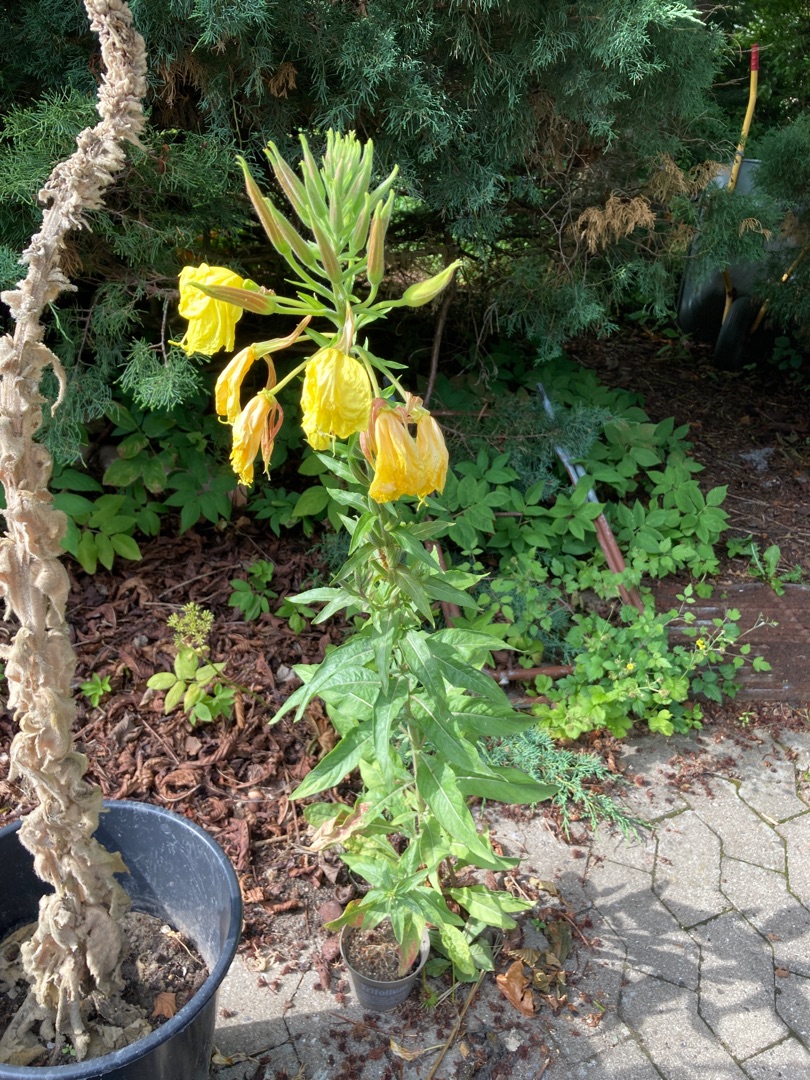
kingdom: Plantae
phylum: Tracheophyta
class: Magnoliopsida
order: Myrtales
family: Onagraceae
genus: Oenothera
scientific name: Oenothera glazioviana
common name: Kæmpe-natlys
